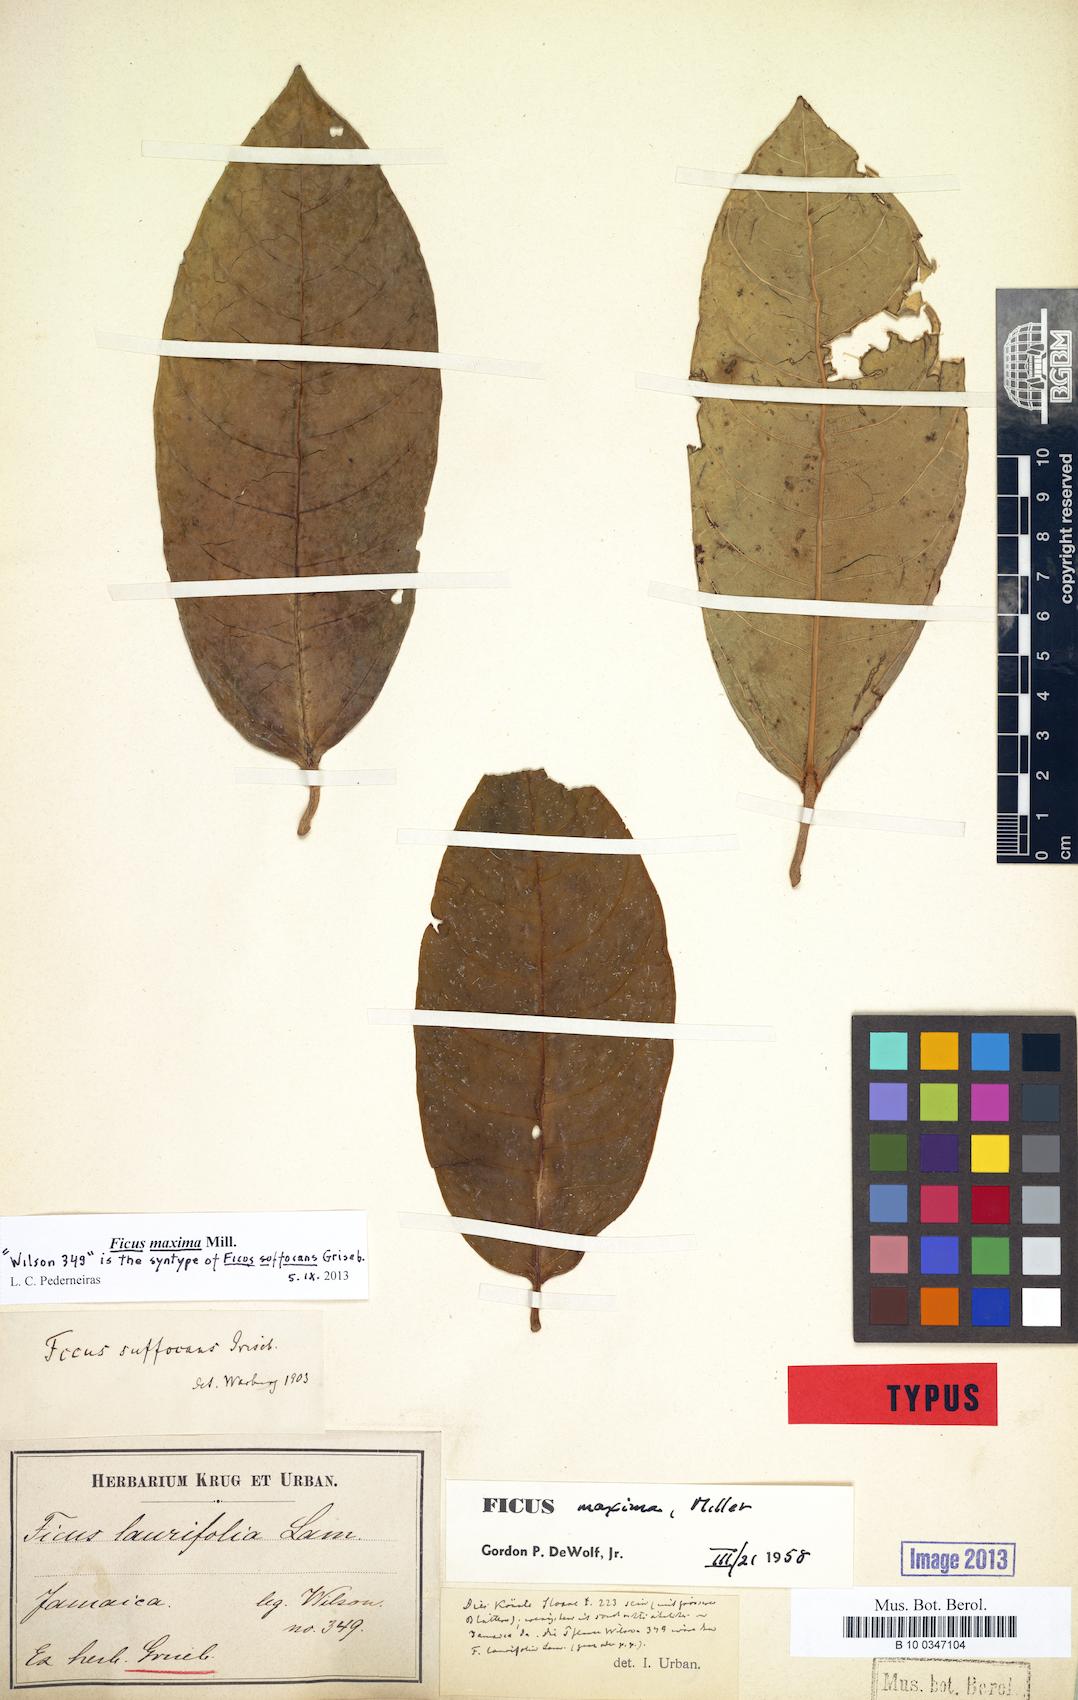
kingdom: Plantae
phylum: Tracheophyta
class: Magnoliopsida
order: Rosales
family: Moraceae
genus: Ficus
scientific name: Ficus maxima
